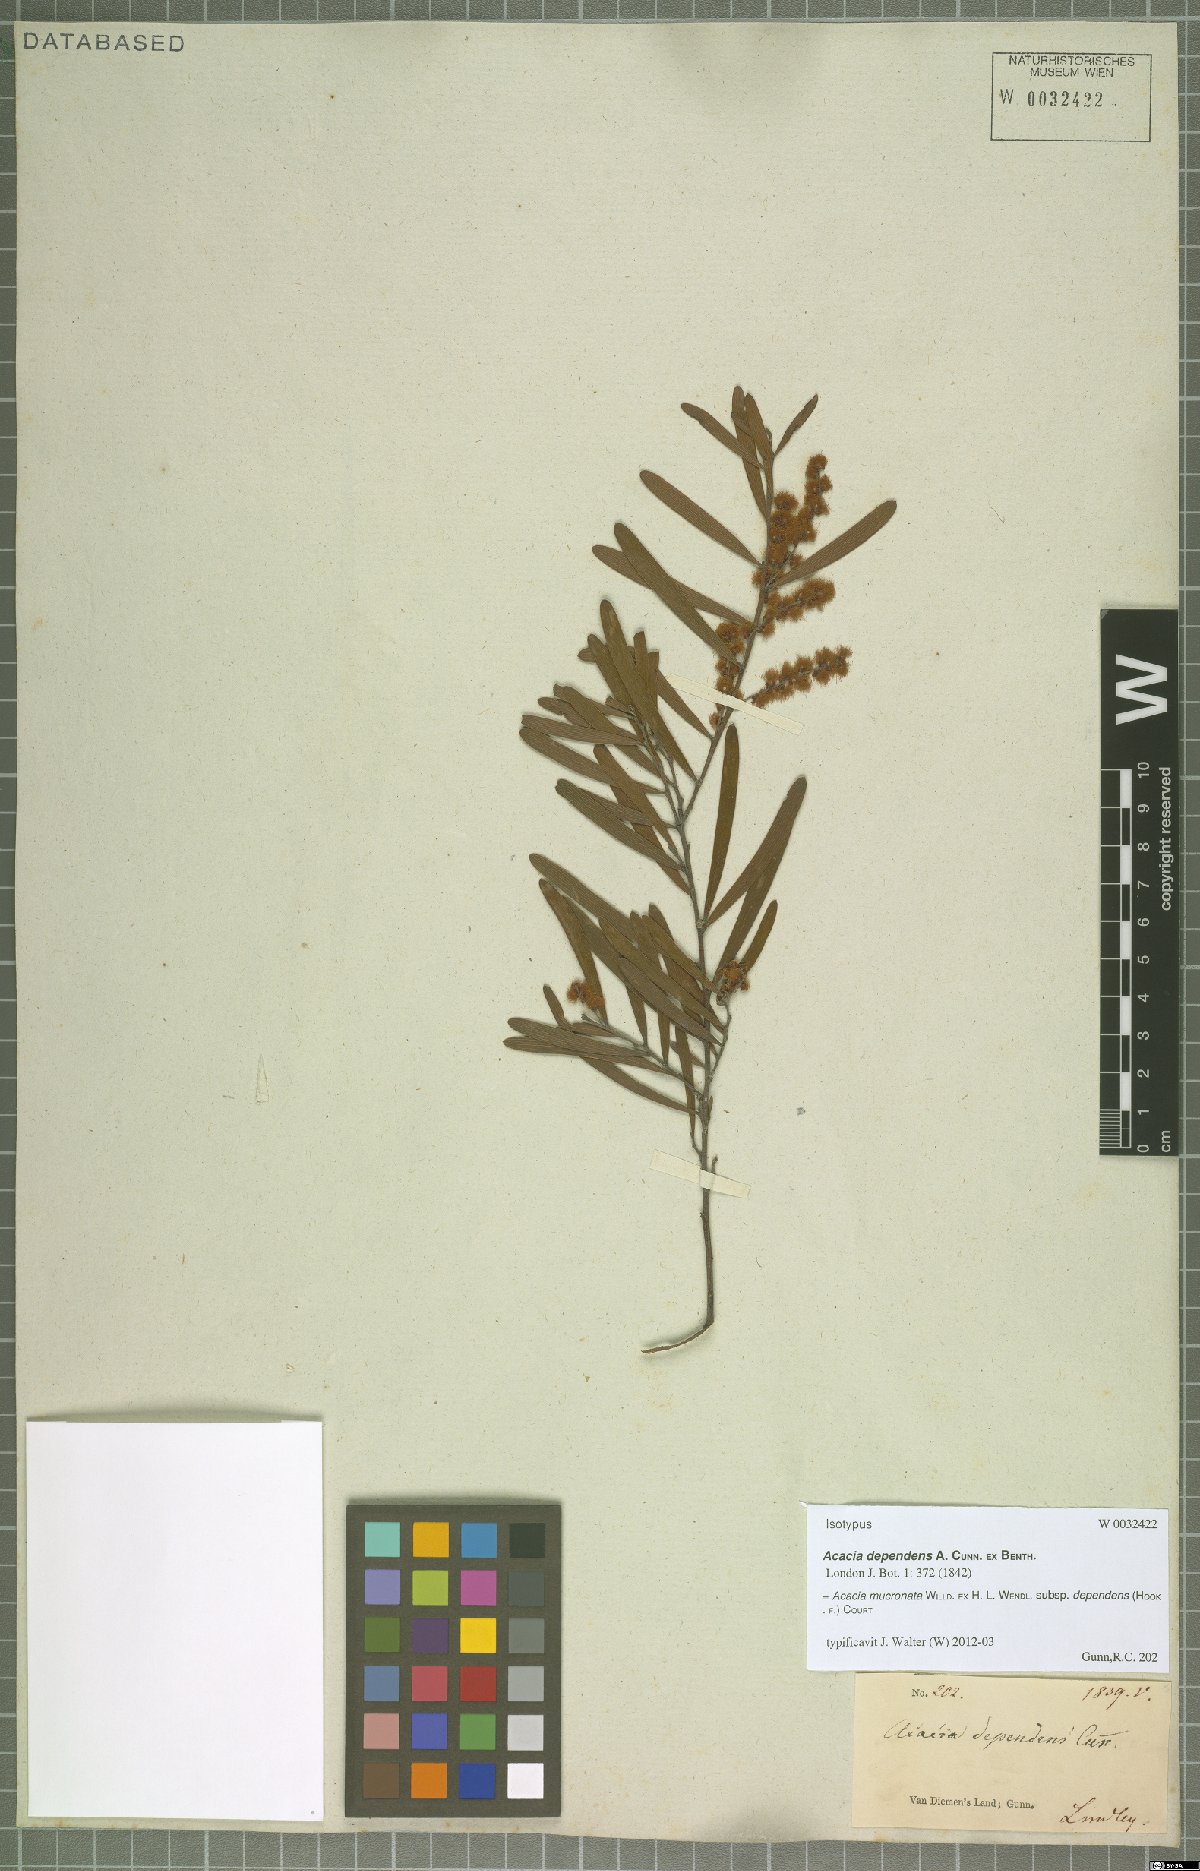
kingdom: Plantae
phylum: Tracheophyta
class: Magnoliopsida
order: Fabales
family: Fabaceae
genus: Acacia
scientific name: Acacia mucronata
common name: Variable sallow wattle
